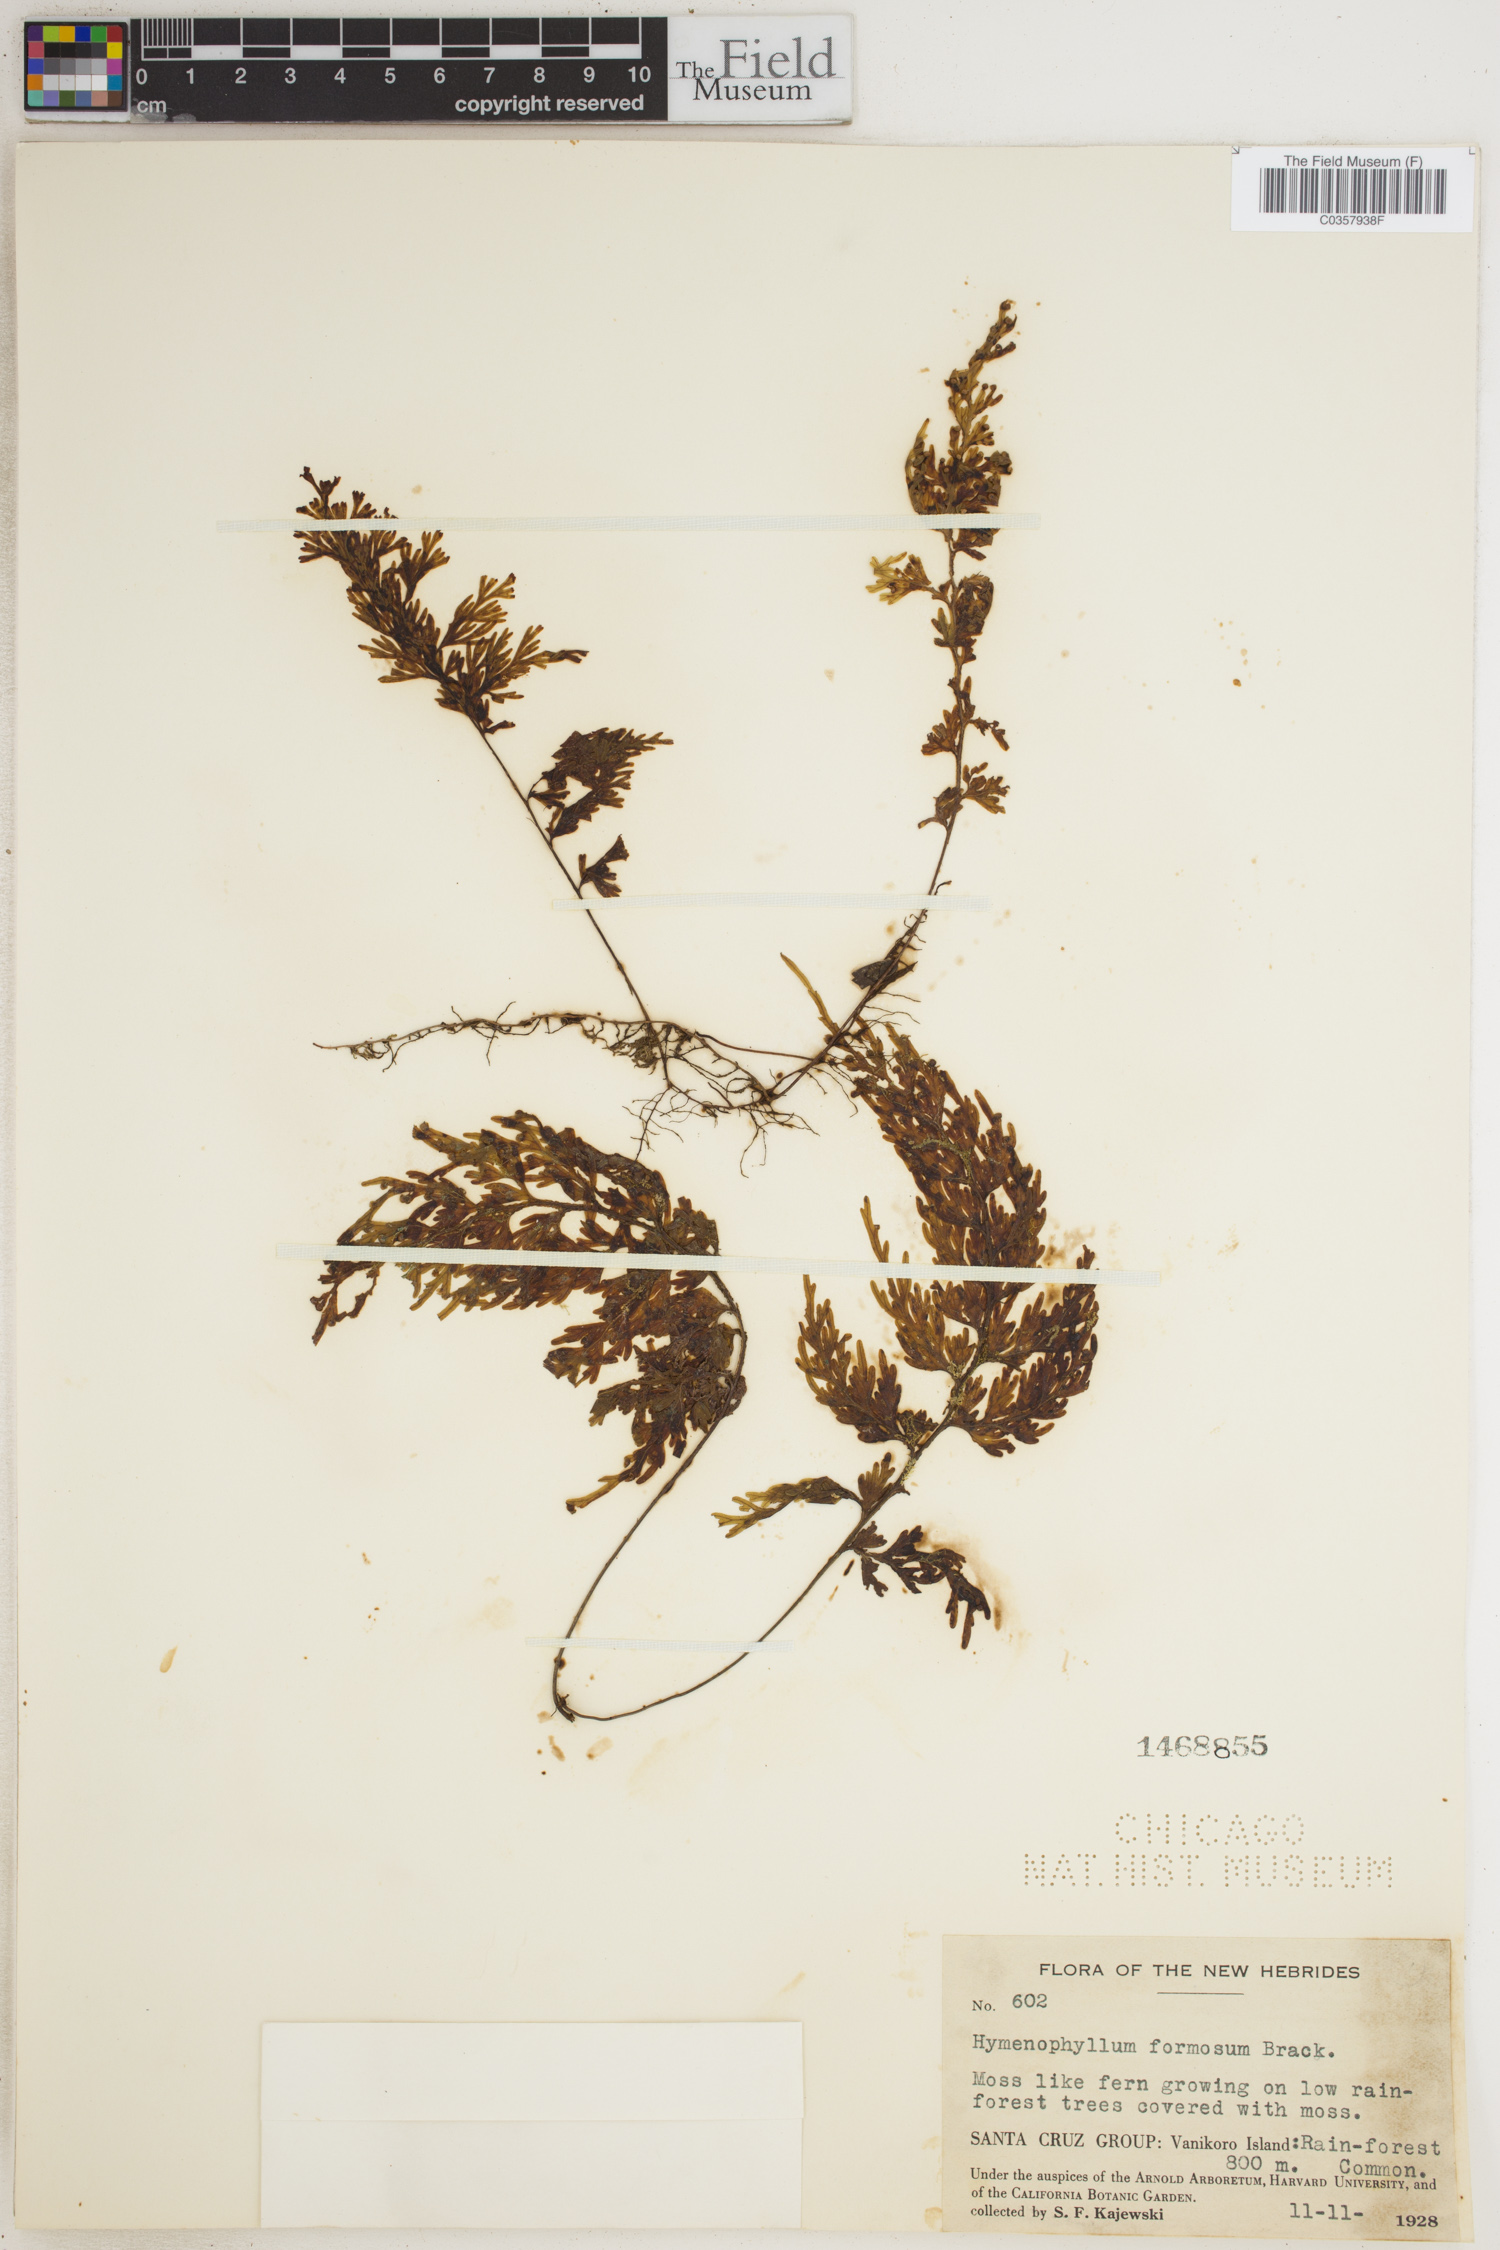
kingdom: Plantae
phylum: Tracheophyta
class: Polypodiopsida
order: Hymenophyllales
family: Hymenophyllaceae
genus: Hymenophyllum
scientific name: Hymenophyllum imbricatum
